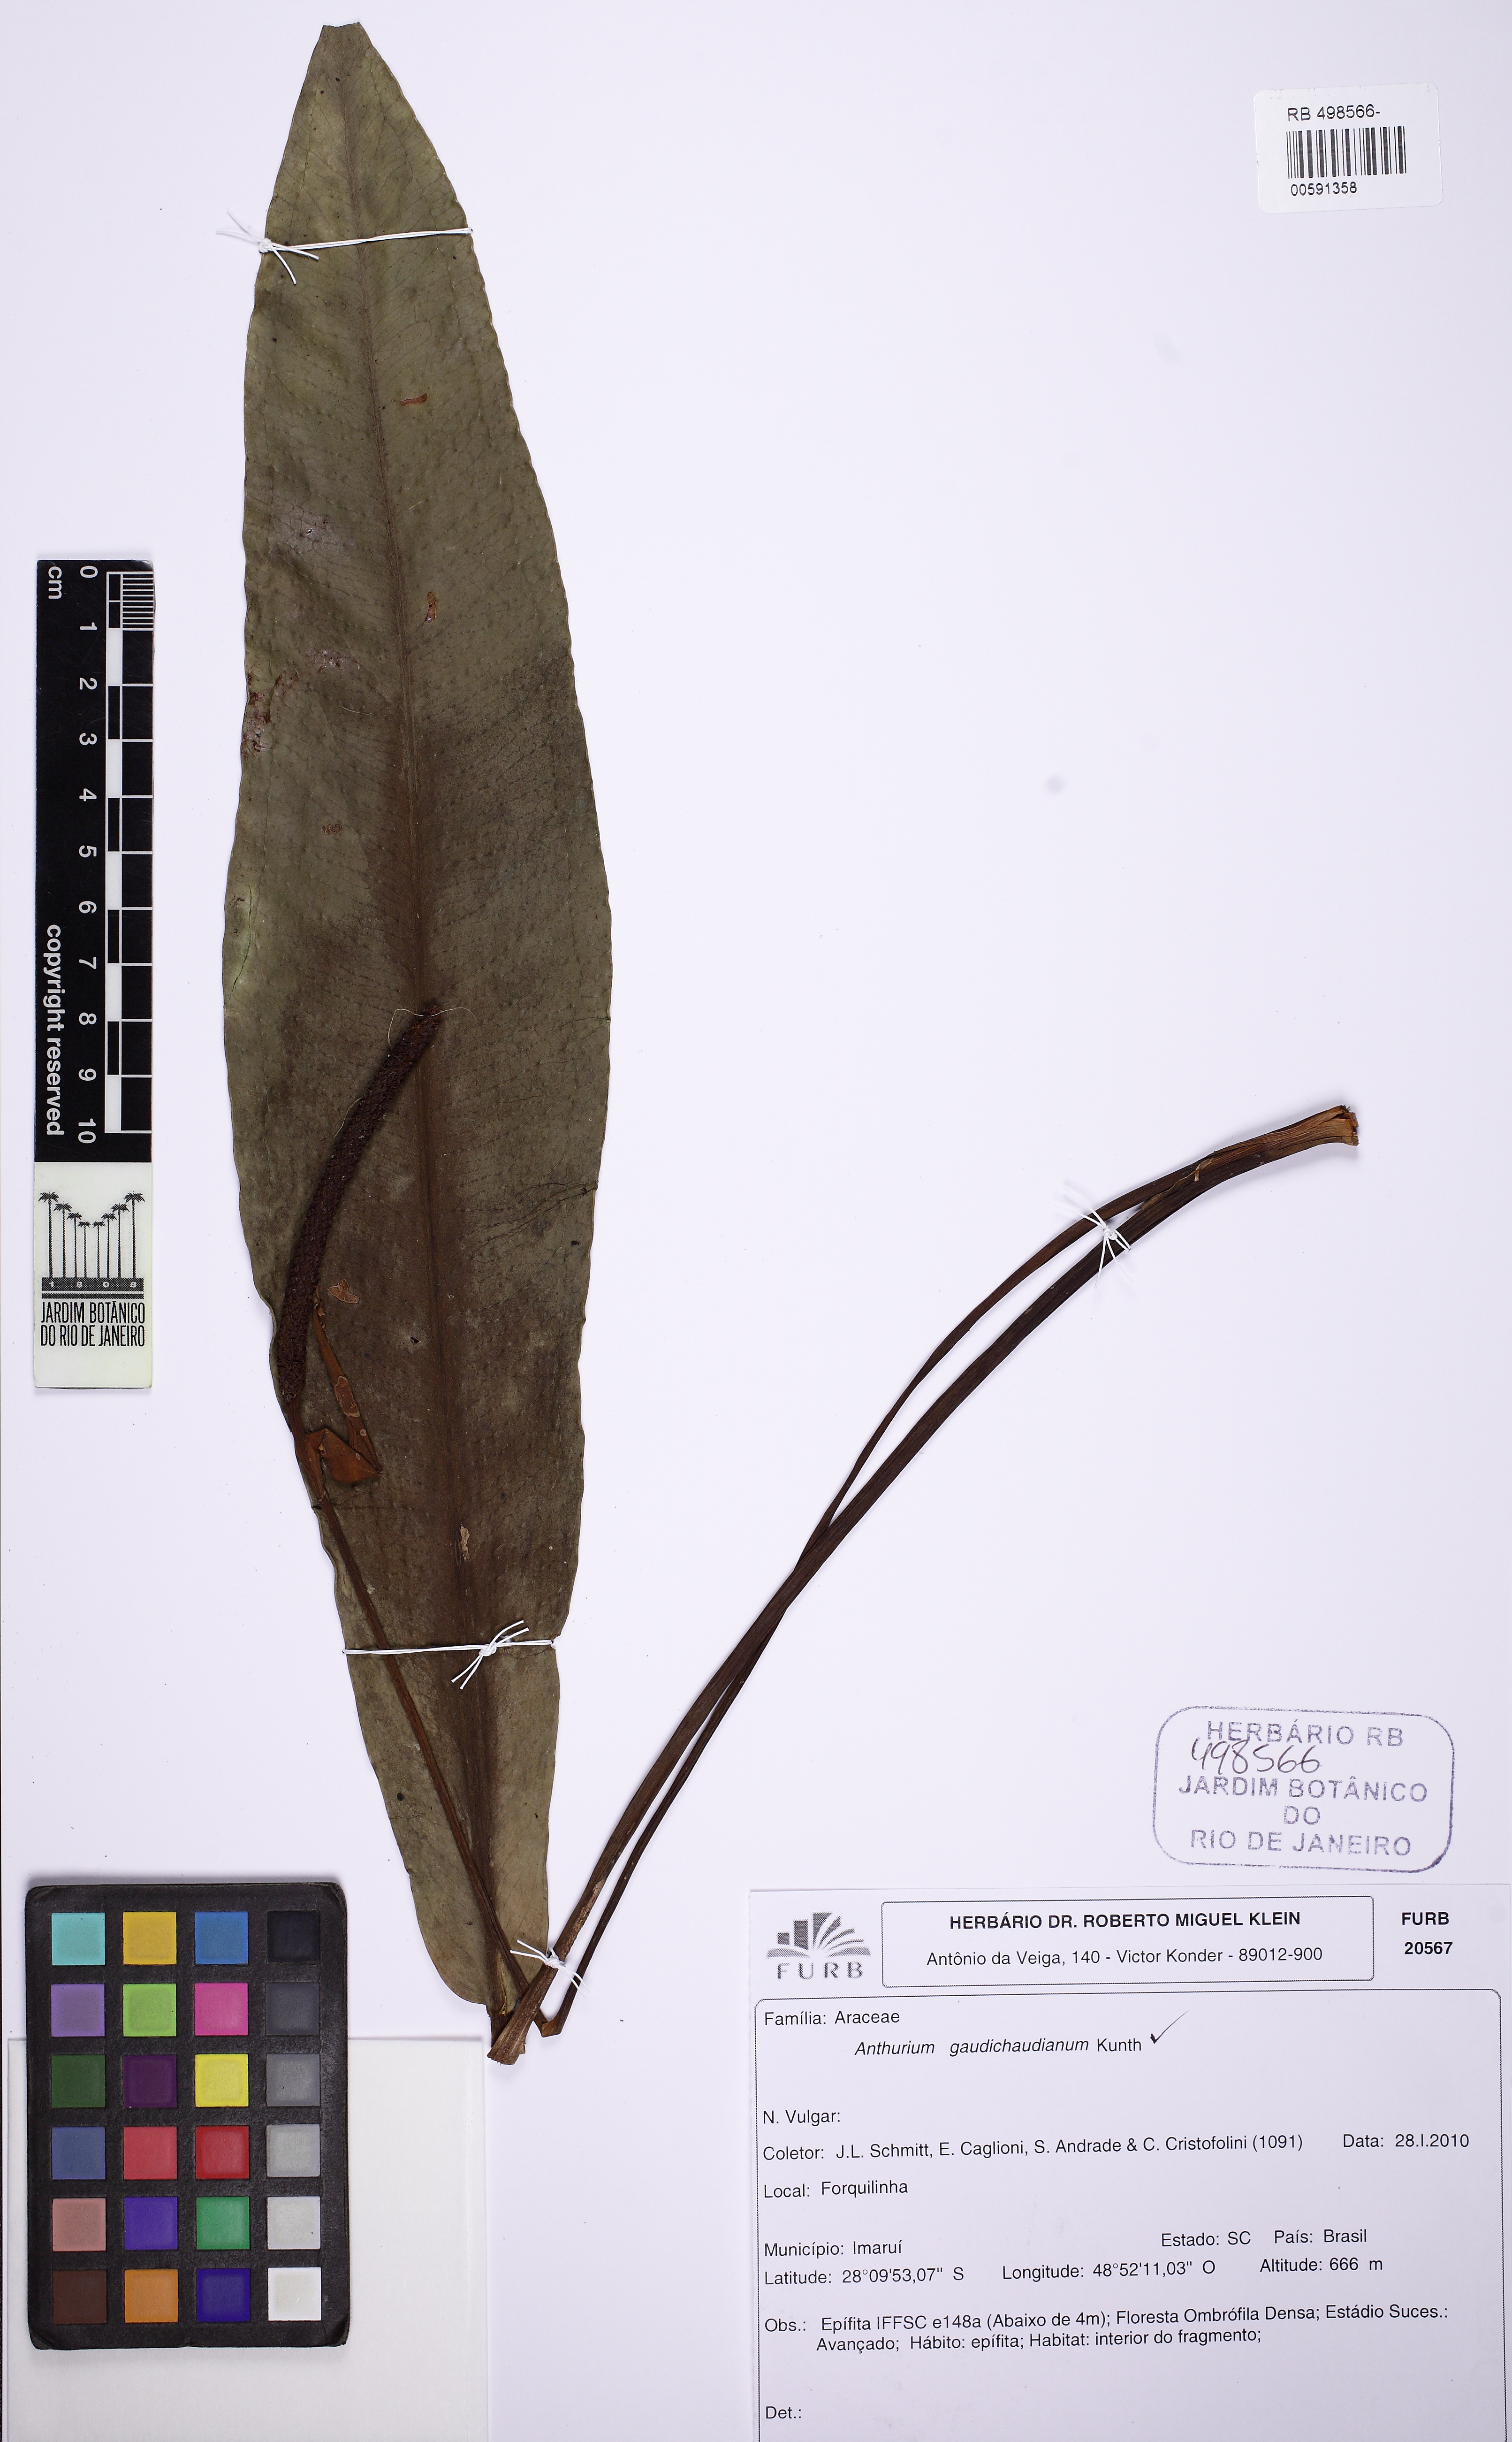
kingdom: Plantae
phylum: Tracheophyta
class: Liliopsida
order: Alismatales
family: Araceae
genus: Anthurium
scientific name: Anthurium gaudichaudianum
